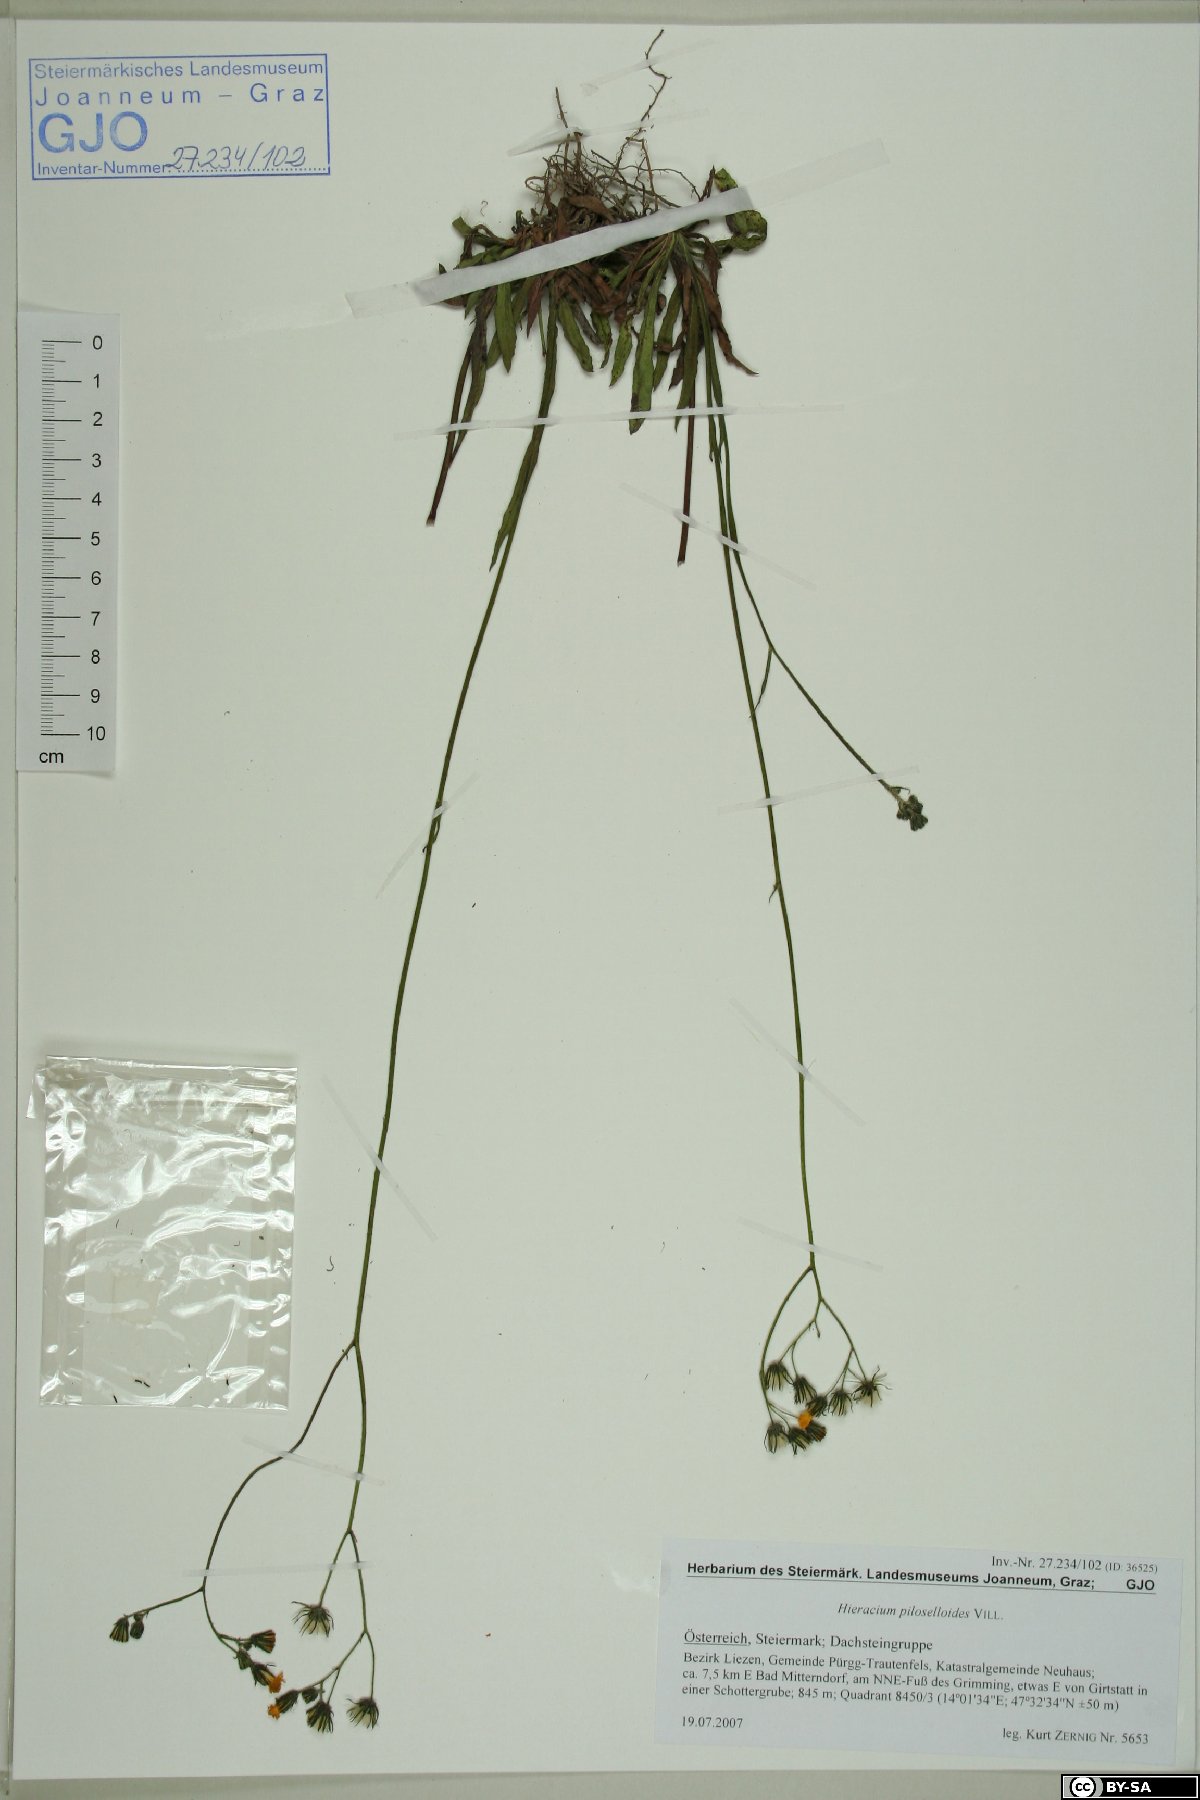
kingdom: Plantae
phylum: Tracheophyta
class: Magnoliopsida
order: Asterales
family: Asteraceae
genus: Pilosella
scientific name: Pilosella piloselloides
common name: Glaucous king-devil
